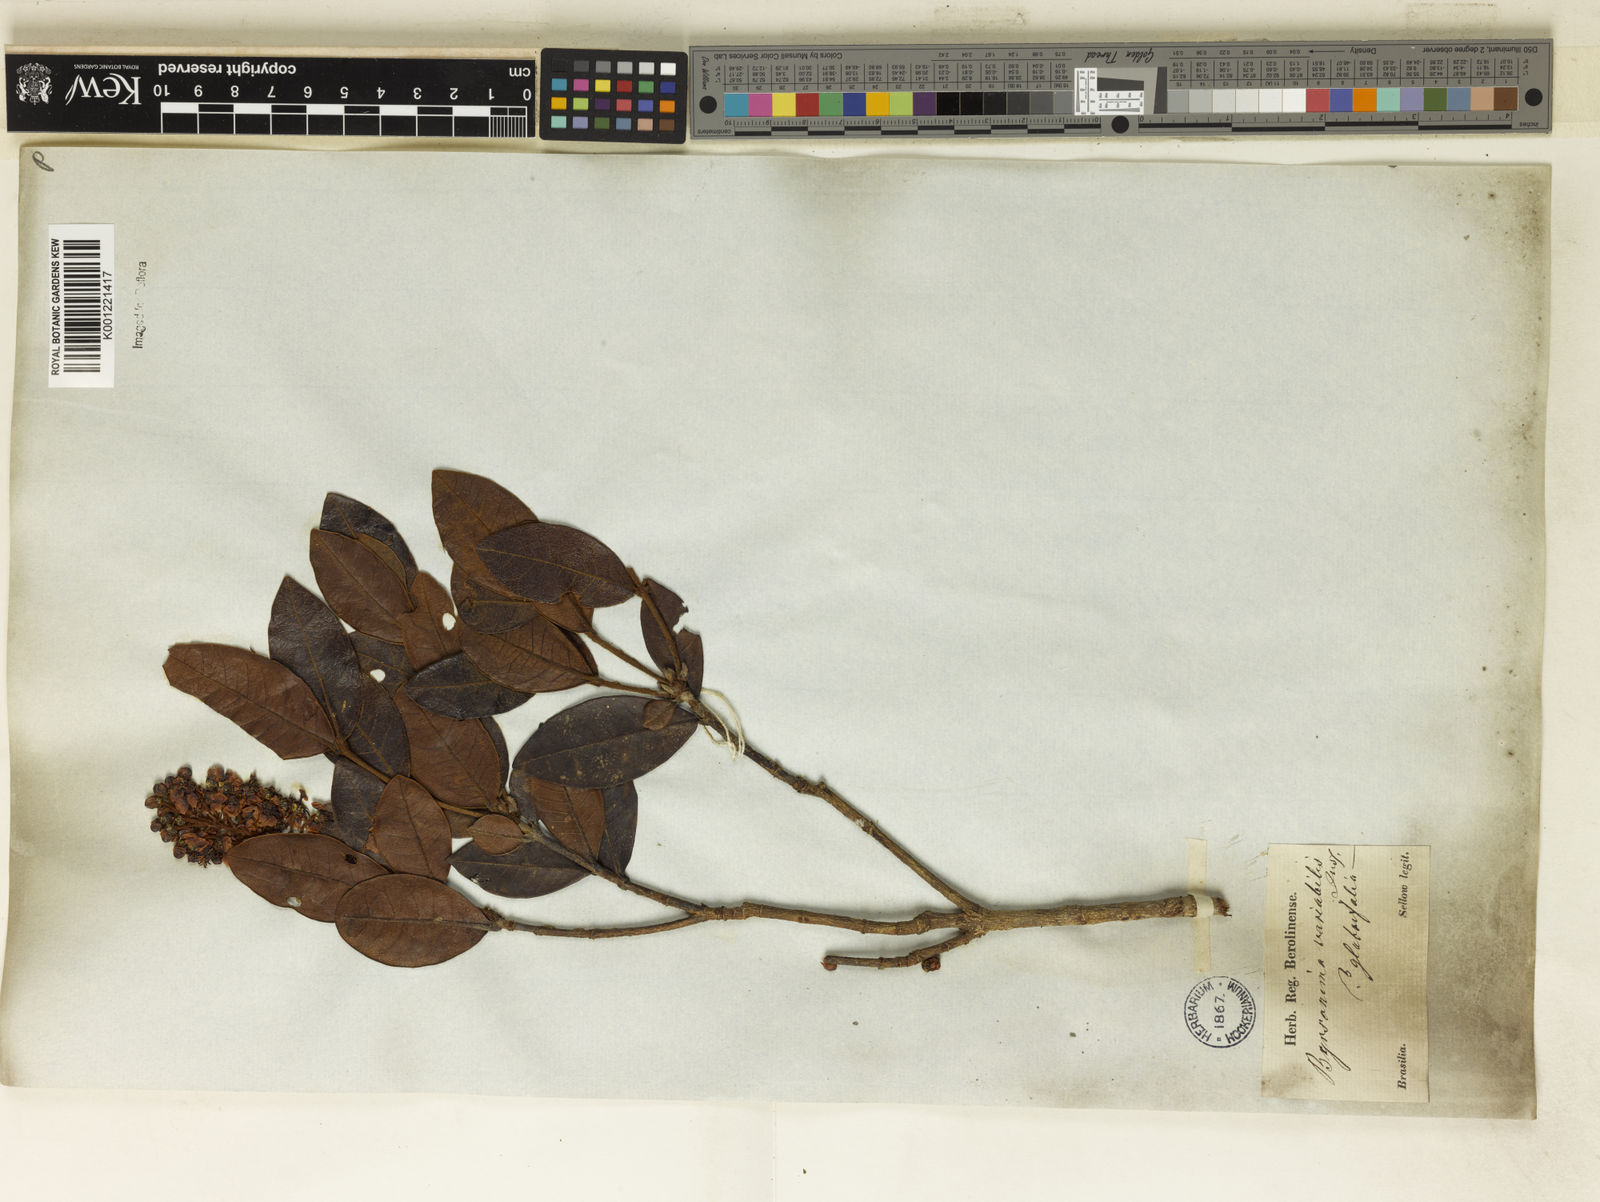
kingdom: Plantae
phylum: Tracheophyta
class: Magnoliopsida
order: Malpighiales
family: Malpighiaceae
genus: Byrsonima
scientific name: Byrsonima variabilis
